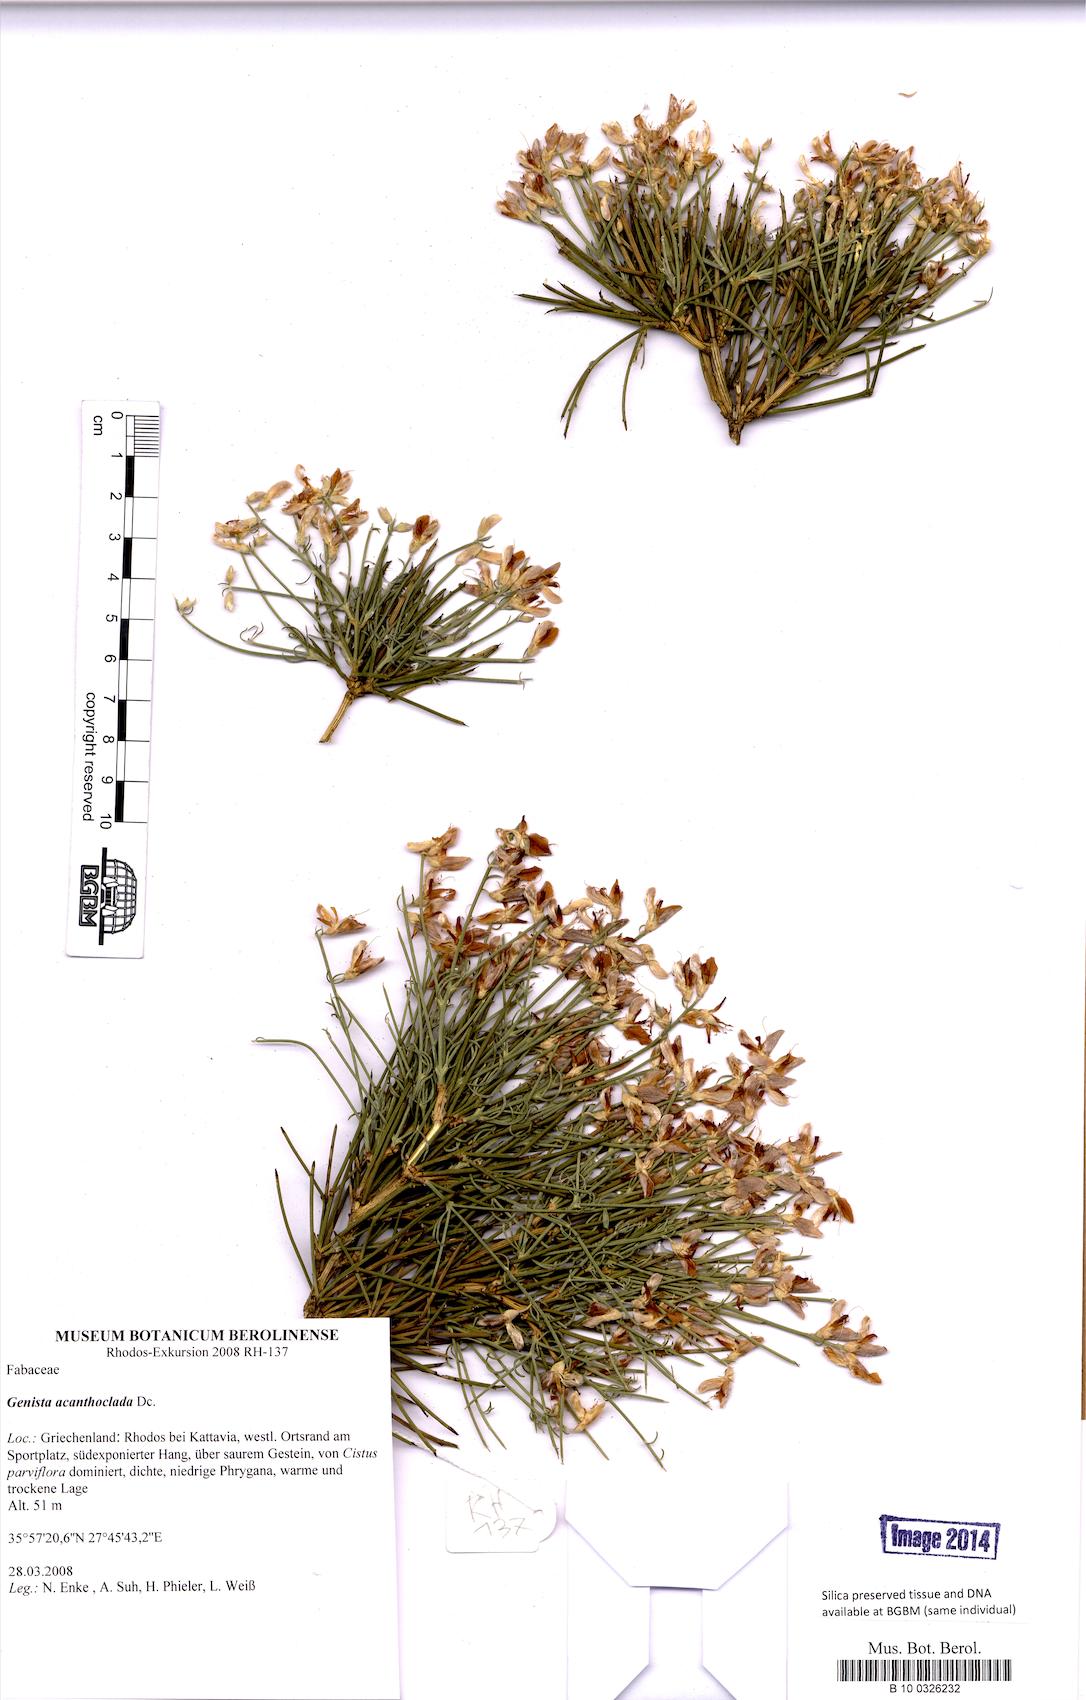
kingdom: Plantae
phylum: Tracheophyta
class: Magnoliopsida
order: Fabales
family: Fabaceae
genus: Genista
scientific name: Genista acanthoclada
